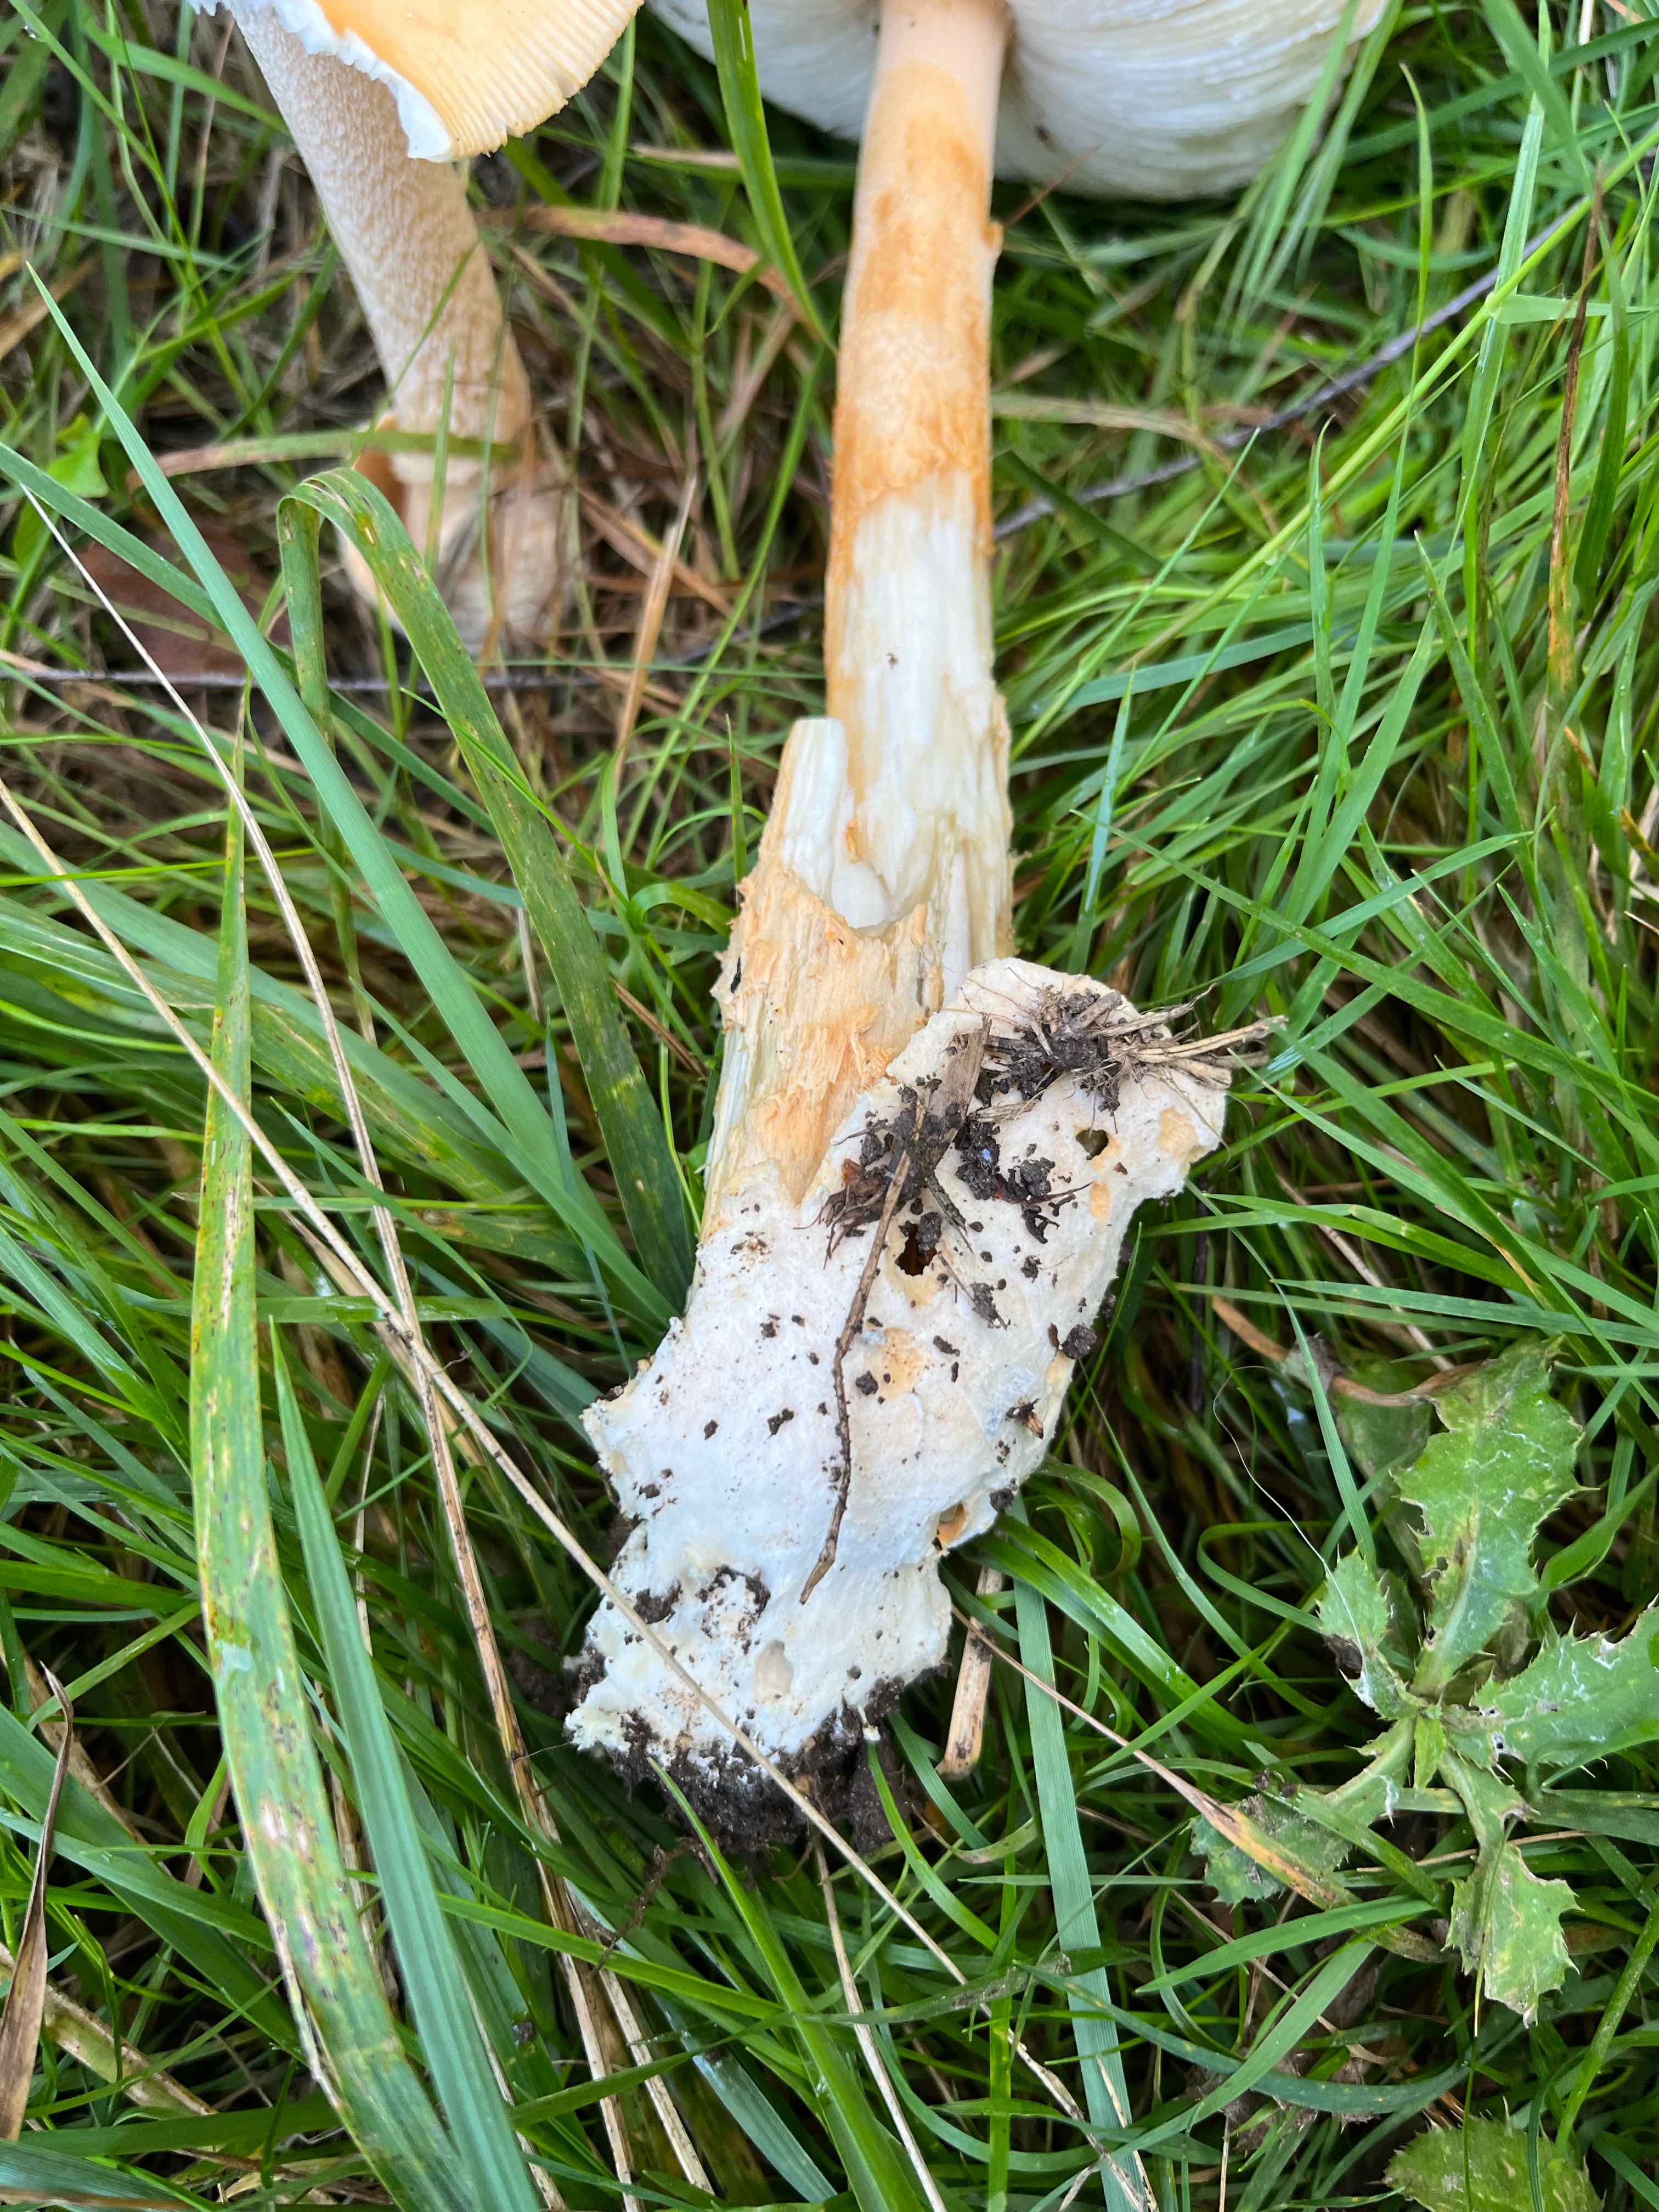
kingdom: Fungi
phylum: Basidiomycota
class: Agaricomycetes
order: Agaricales
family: Amanitaceae
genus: Amanita
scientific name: Amanita crocea
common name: gylden kam-fluesvamp
